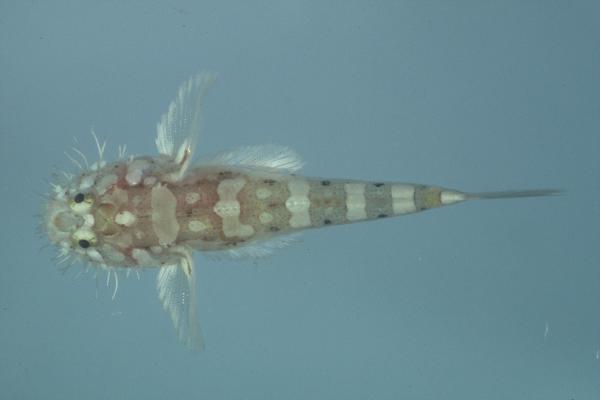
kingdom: Animalia
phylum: Chordata
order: Perciformes
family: Gobiidae
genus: Barbuligobius
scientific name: Barbuligobius boehlkei
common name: Bearded goby
